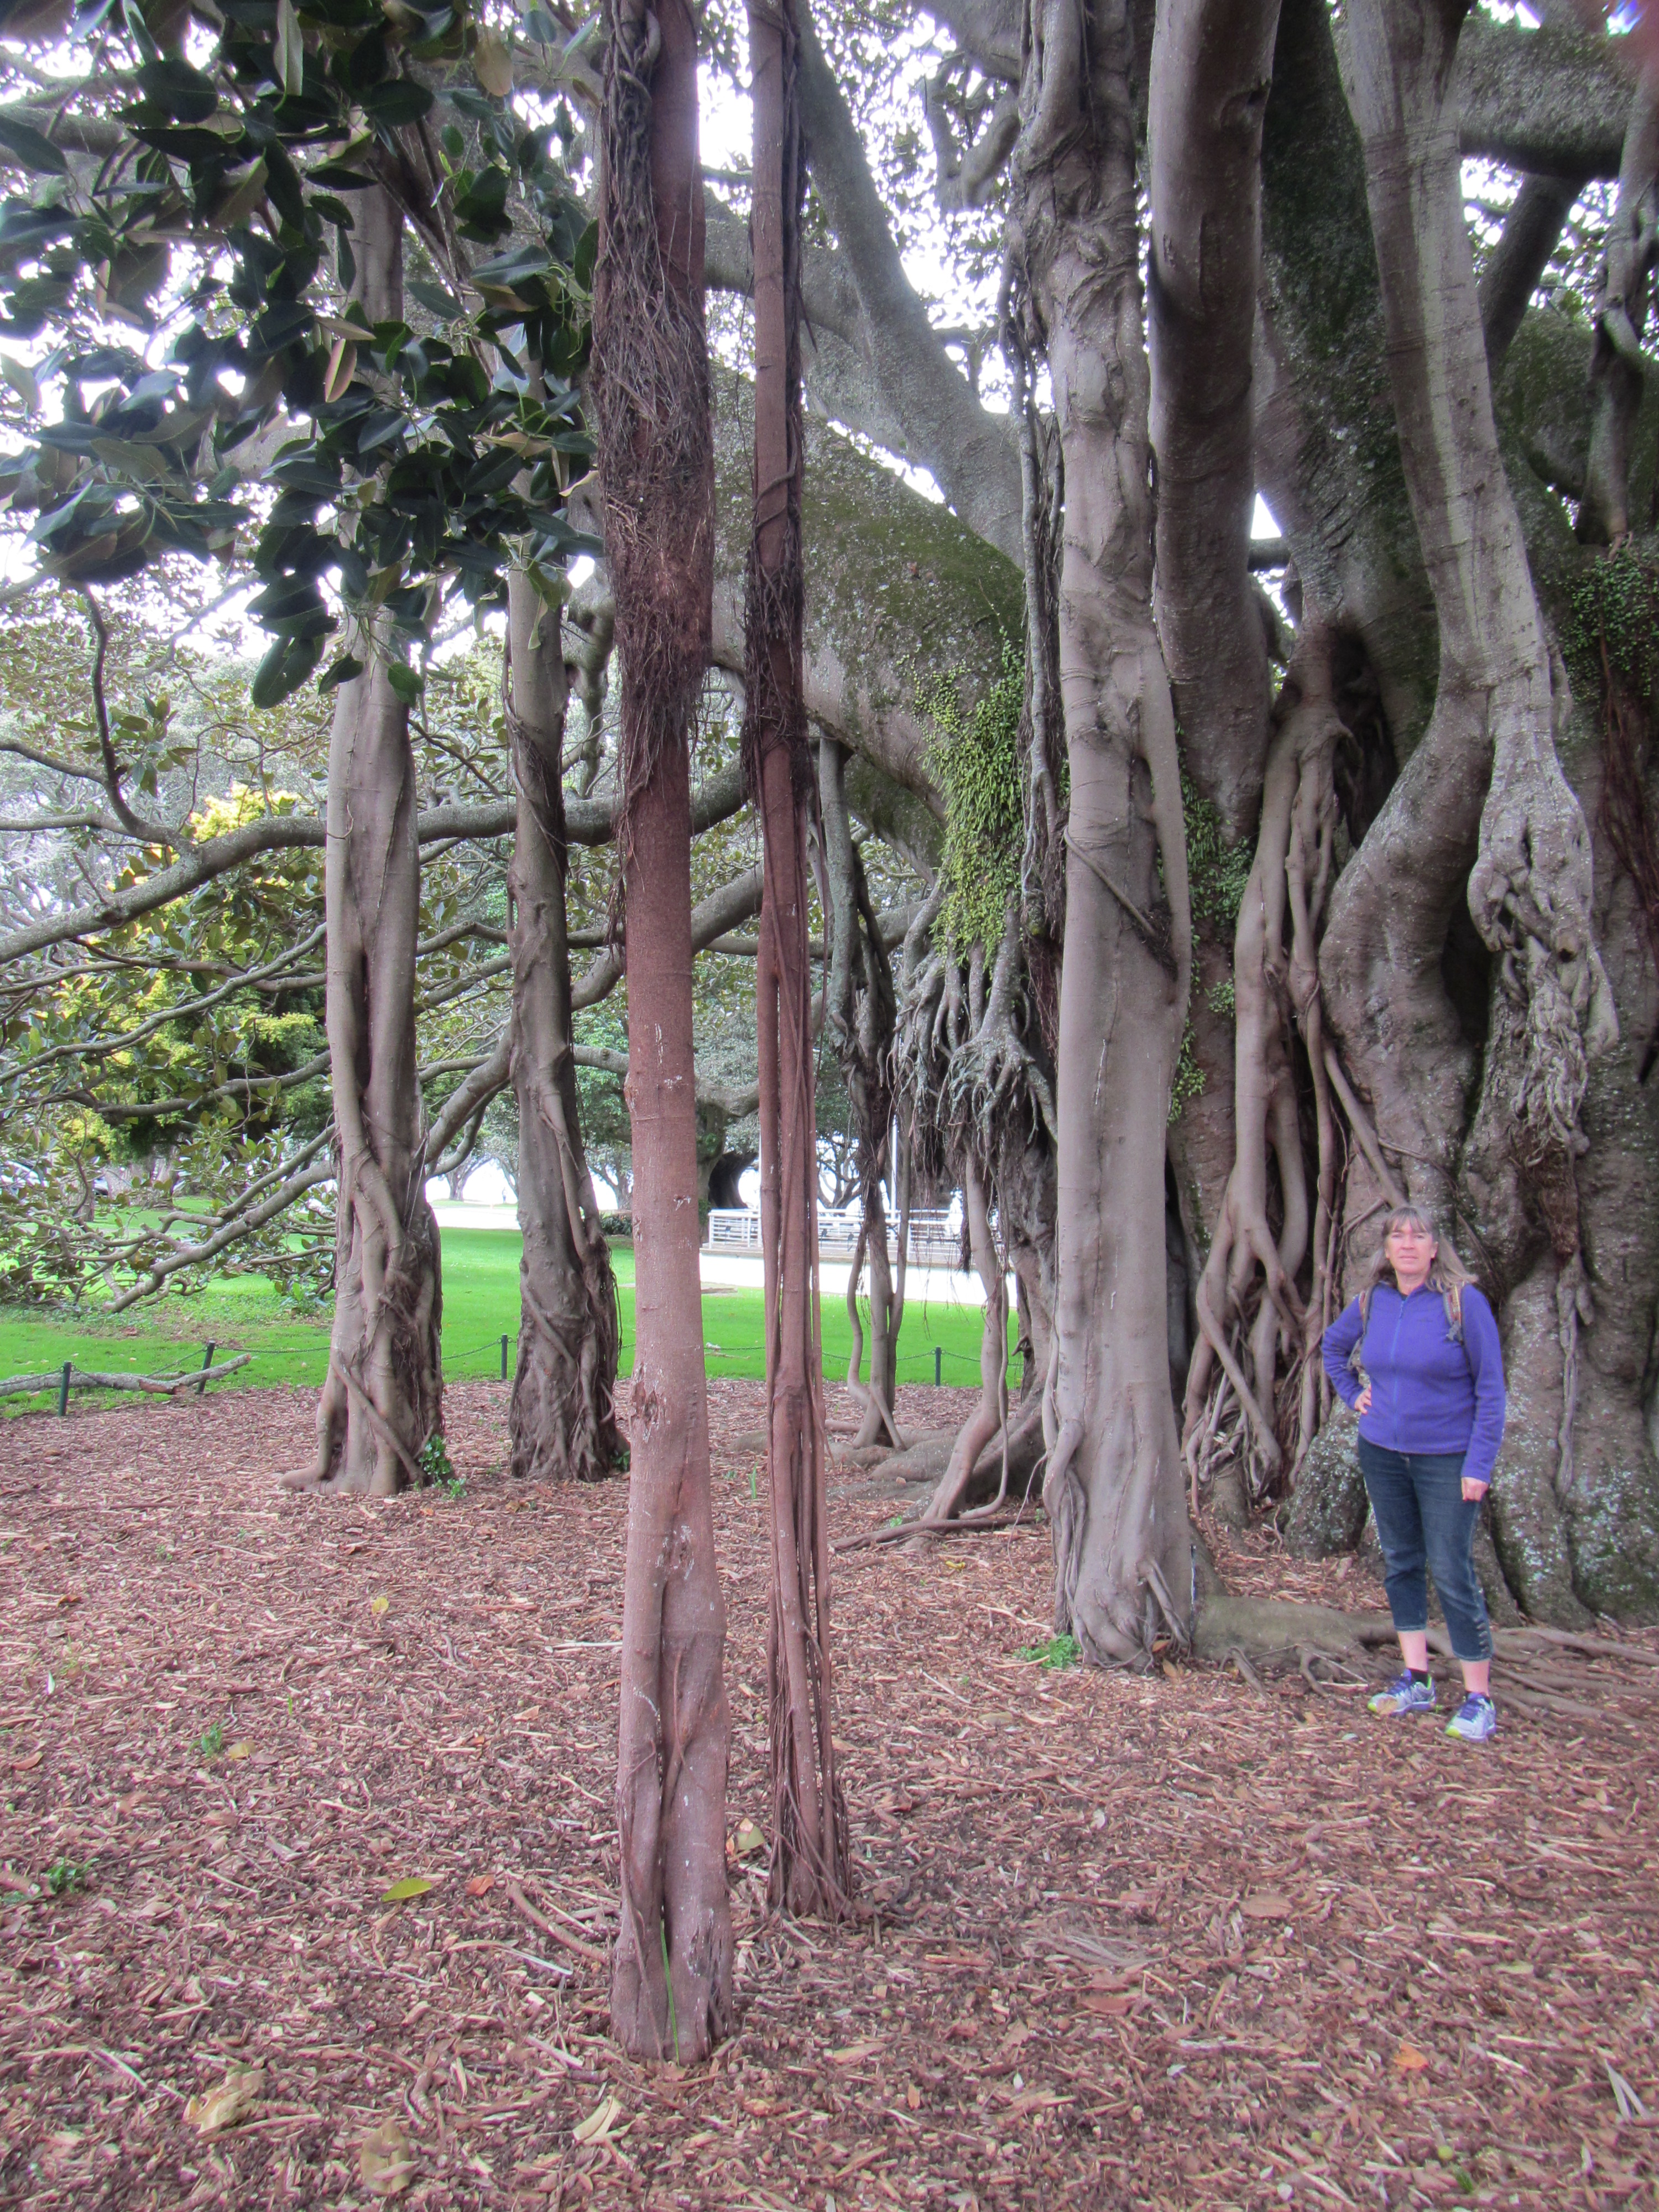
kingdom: Plantae
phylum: Tracheophyta
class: Magnoliopsida
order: Rosales
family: Moraceae
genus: Ficus
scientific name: Ficus macrophylla
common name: Moreton bay fig
